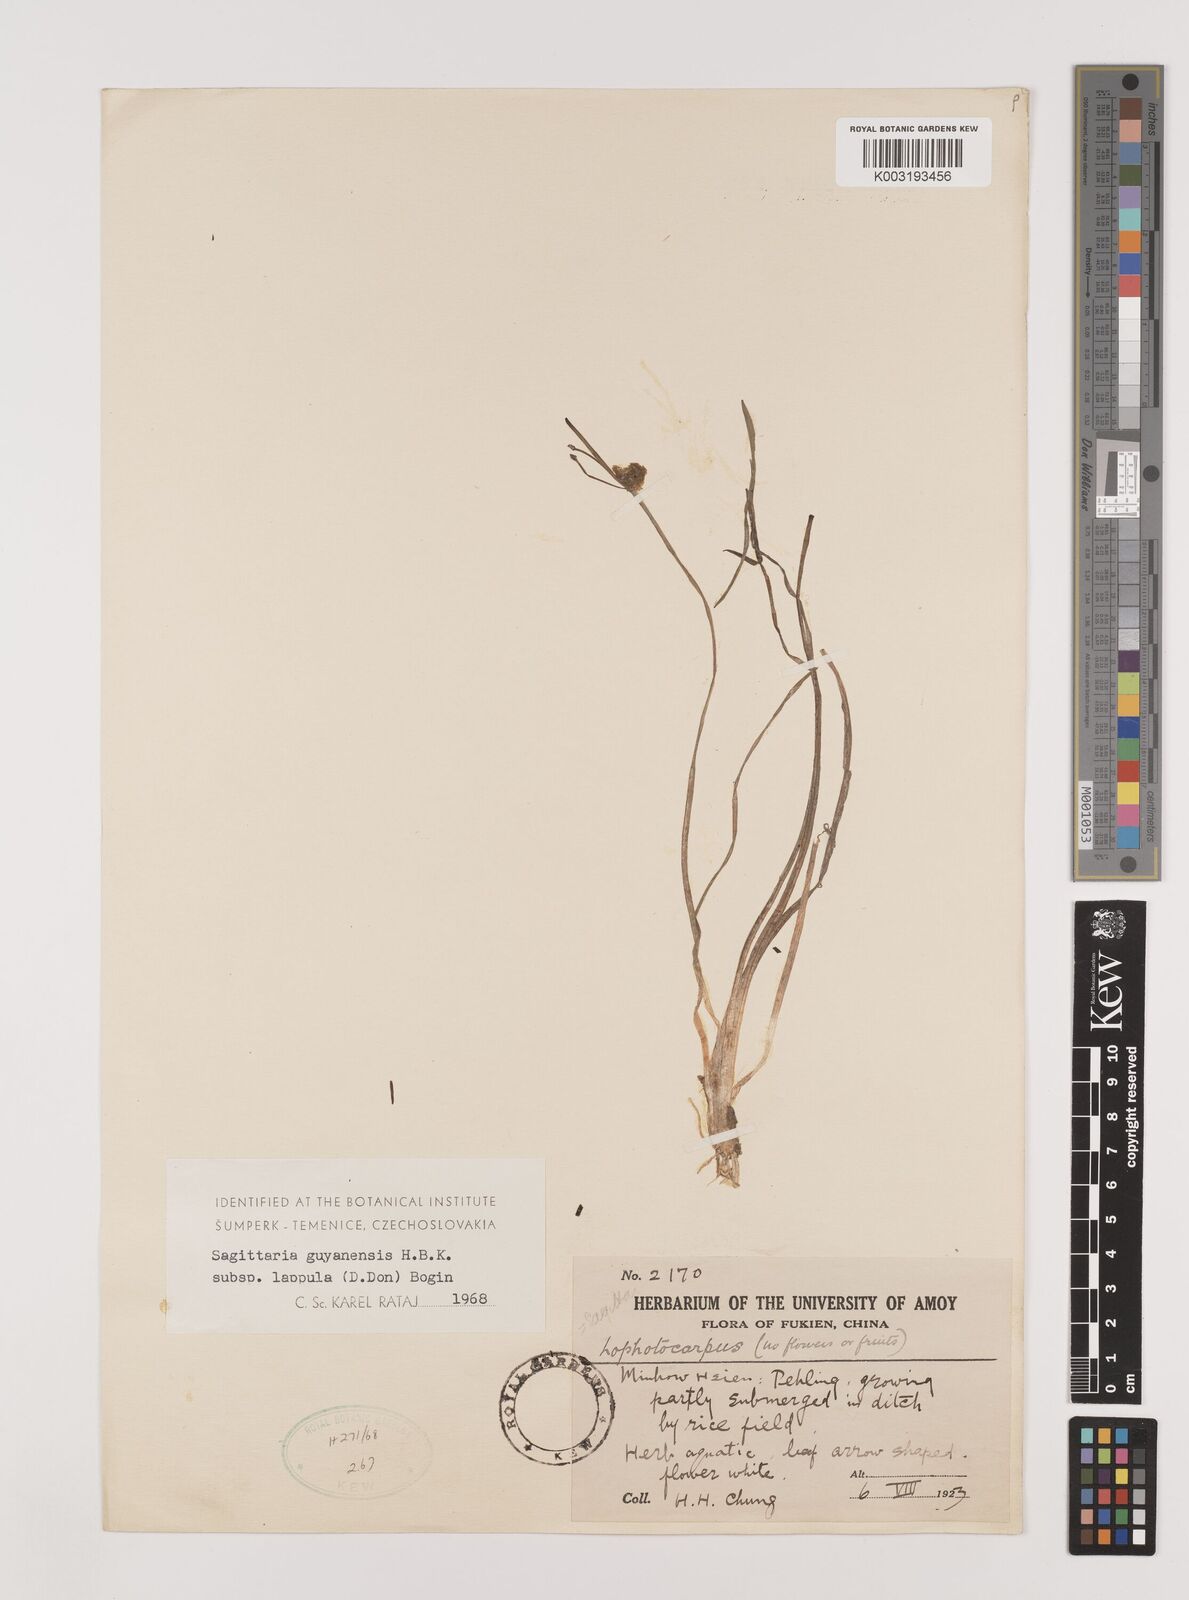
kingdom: Plantae
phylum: Tracheophyta
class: Liliopsida
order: Alismatales
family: Alismataceae
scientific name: Alismataceae
